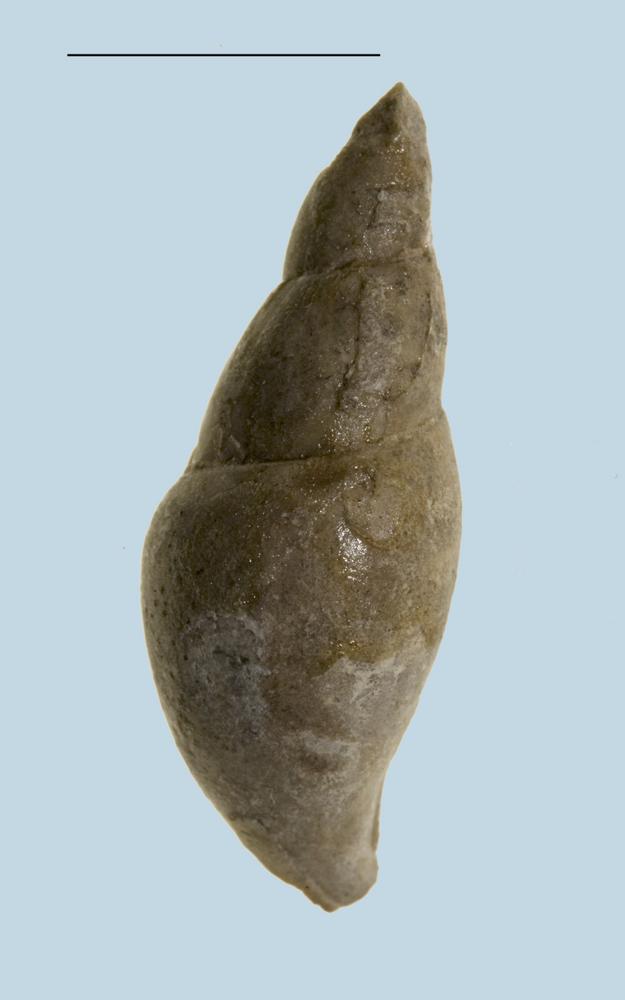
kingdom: Animalia
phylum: Mollusca
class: Gastropoda
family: Subulitidae
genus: Subulites
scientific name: Subulites priscus
